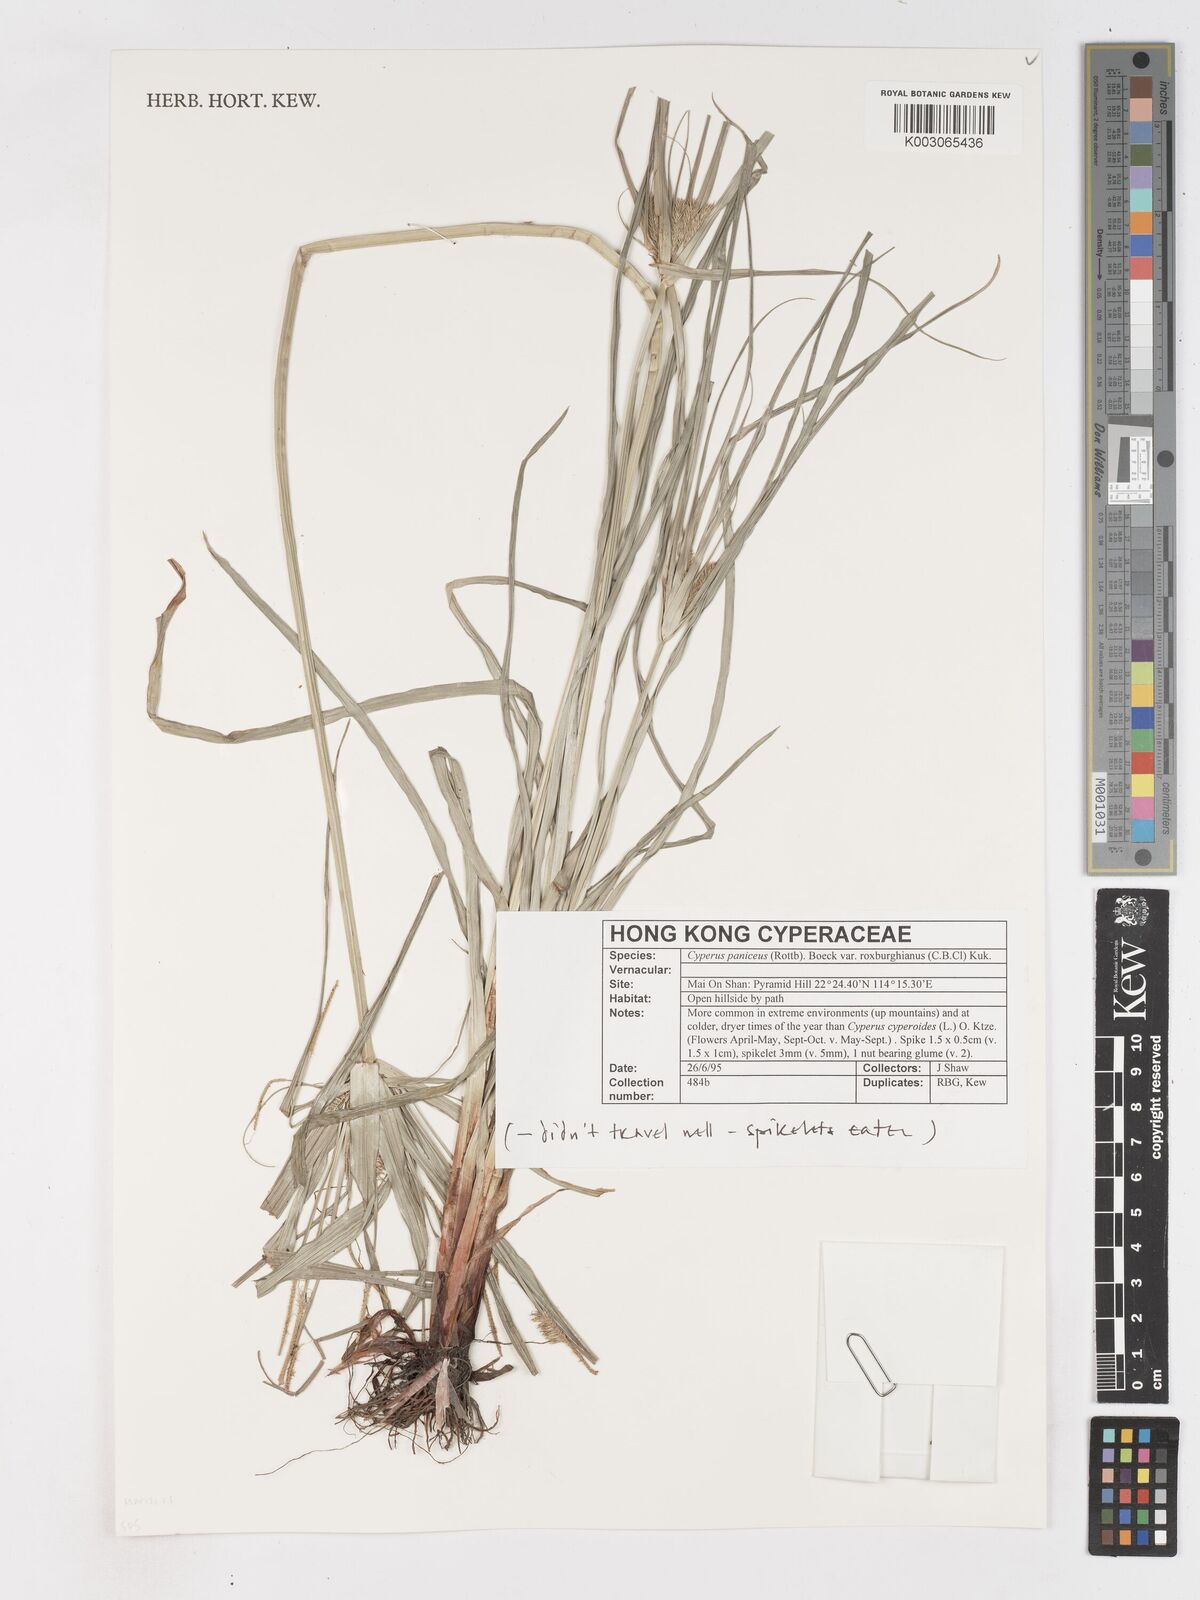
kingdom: Plantae
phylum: Tracheophyta
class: Liliopsida
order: Poales
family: Cyperaceae
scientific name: Cyperaceae
